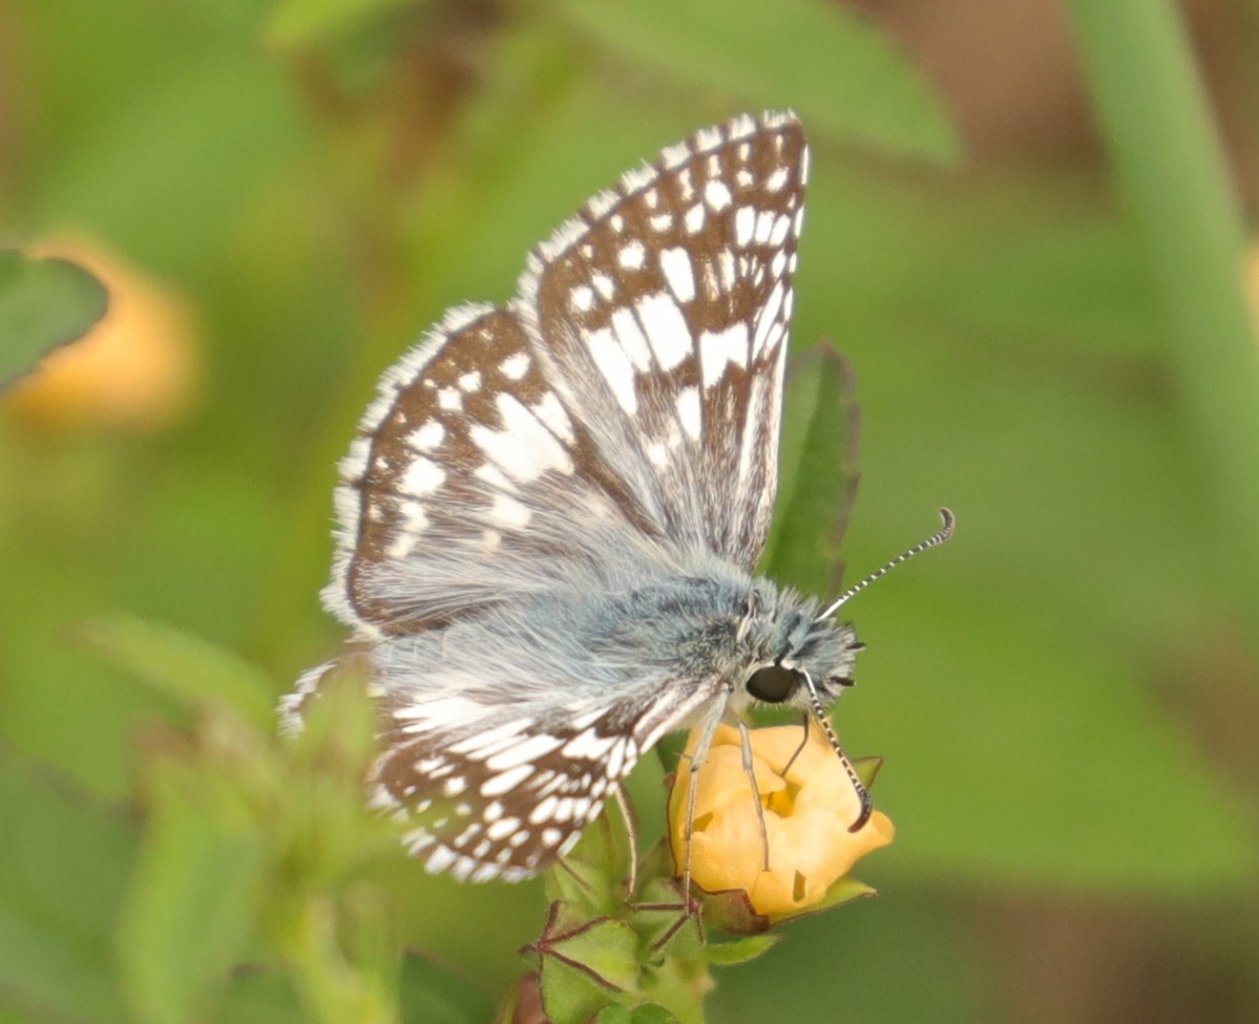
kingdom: Animalia
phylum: Arthropoda
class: Insecta
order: Lepidoptera
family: Hesperiidae
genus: Pyrgus
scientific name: Pyrgus communis
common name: Common Checkered-Skipper
